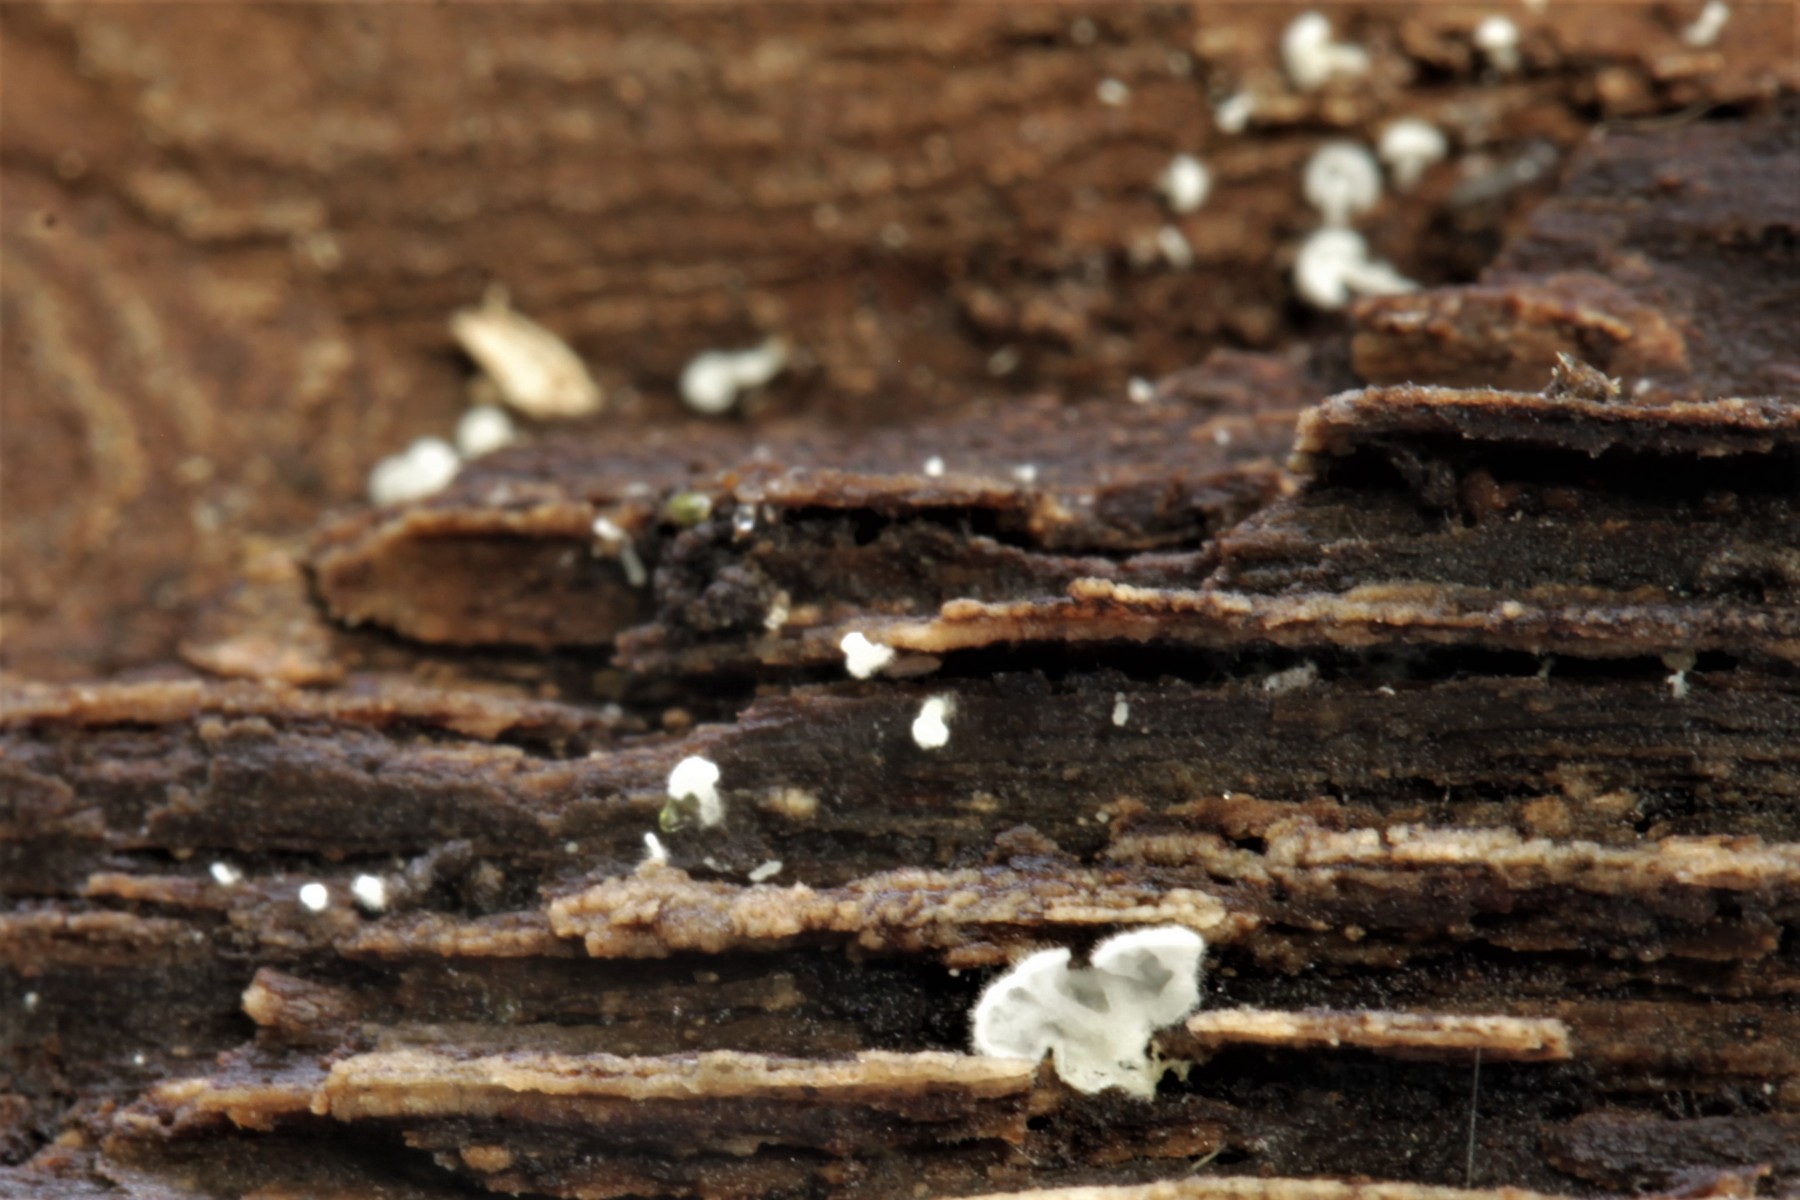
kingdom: Fungi
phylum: Basidiomycota
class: Agaricomycetes
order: Agaricales
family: Entolomataceae
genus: Clitopilus
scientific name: Clitopilus hobsonii
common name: Miller's oysterling
